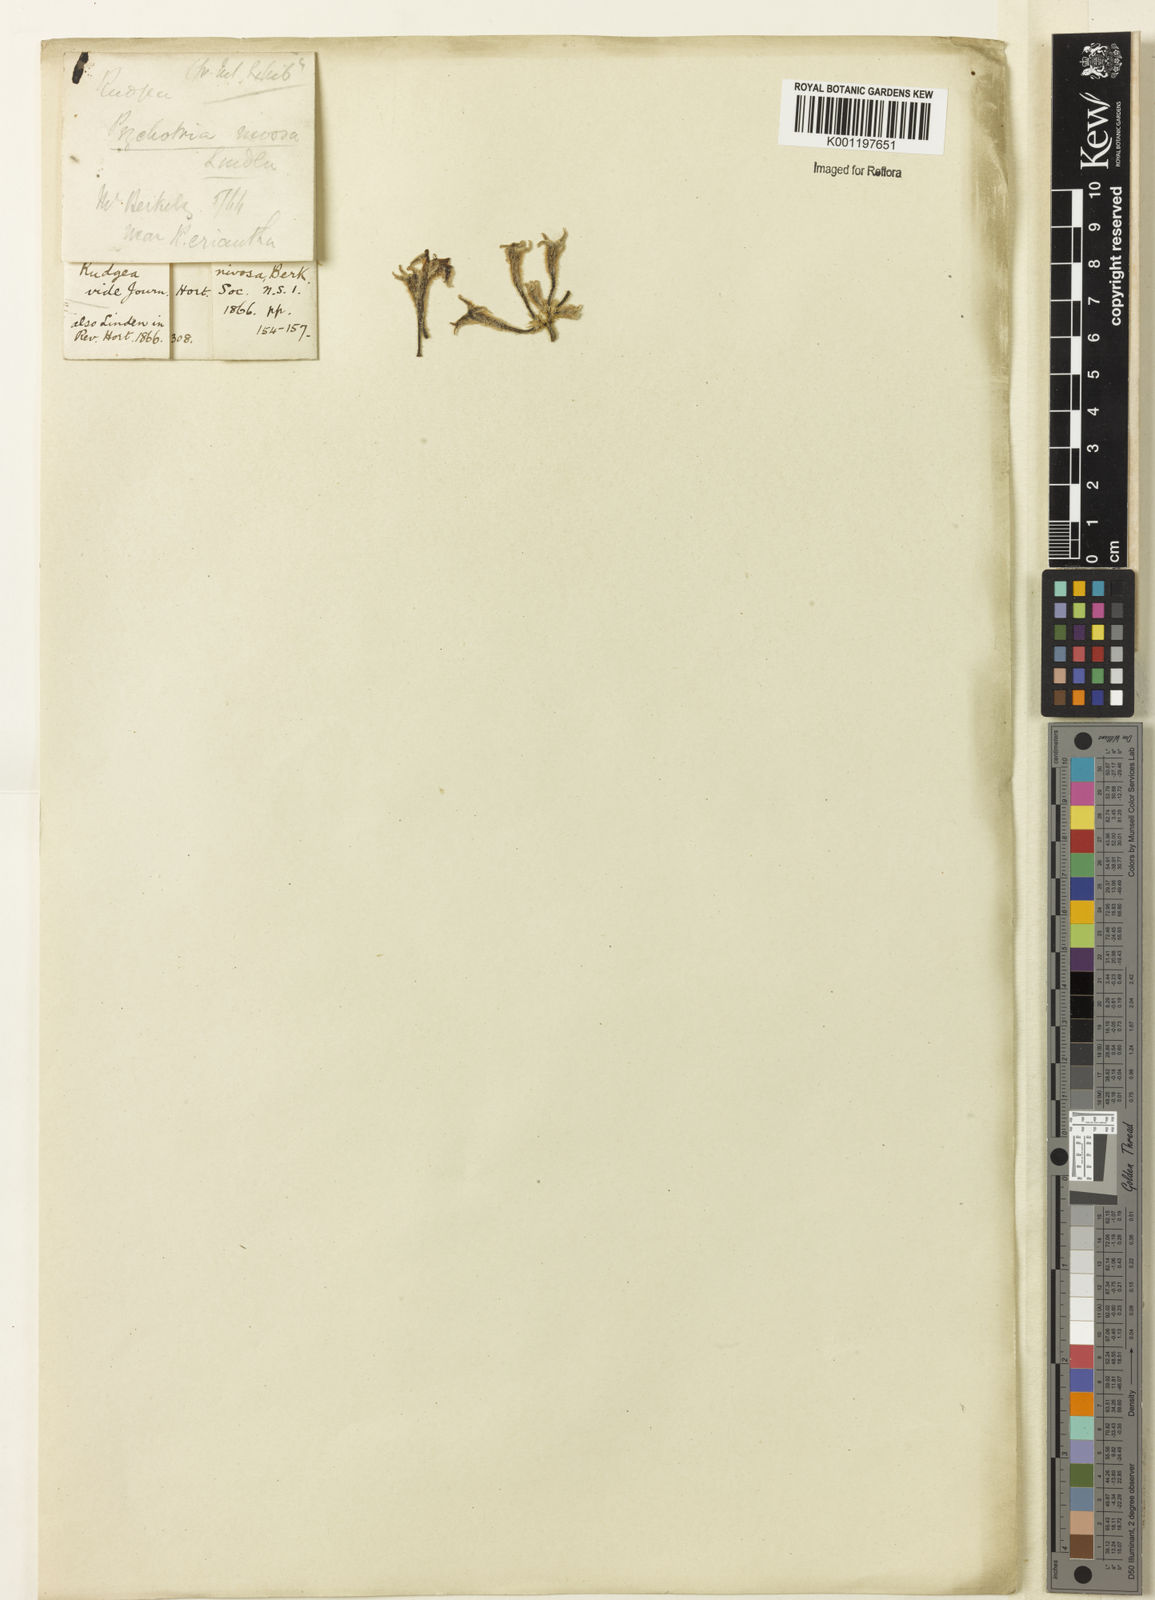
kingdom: Plantae
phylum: Tracheophyta
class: Magnoliopsida
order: Gentianales
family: Rubiaceae
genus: Palicourea
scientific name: Palicourea justiciifolia
